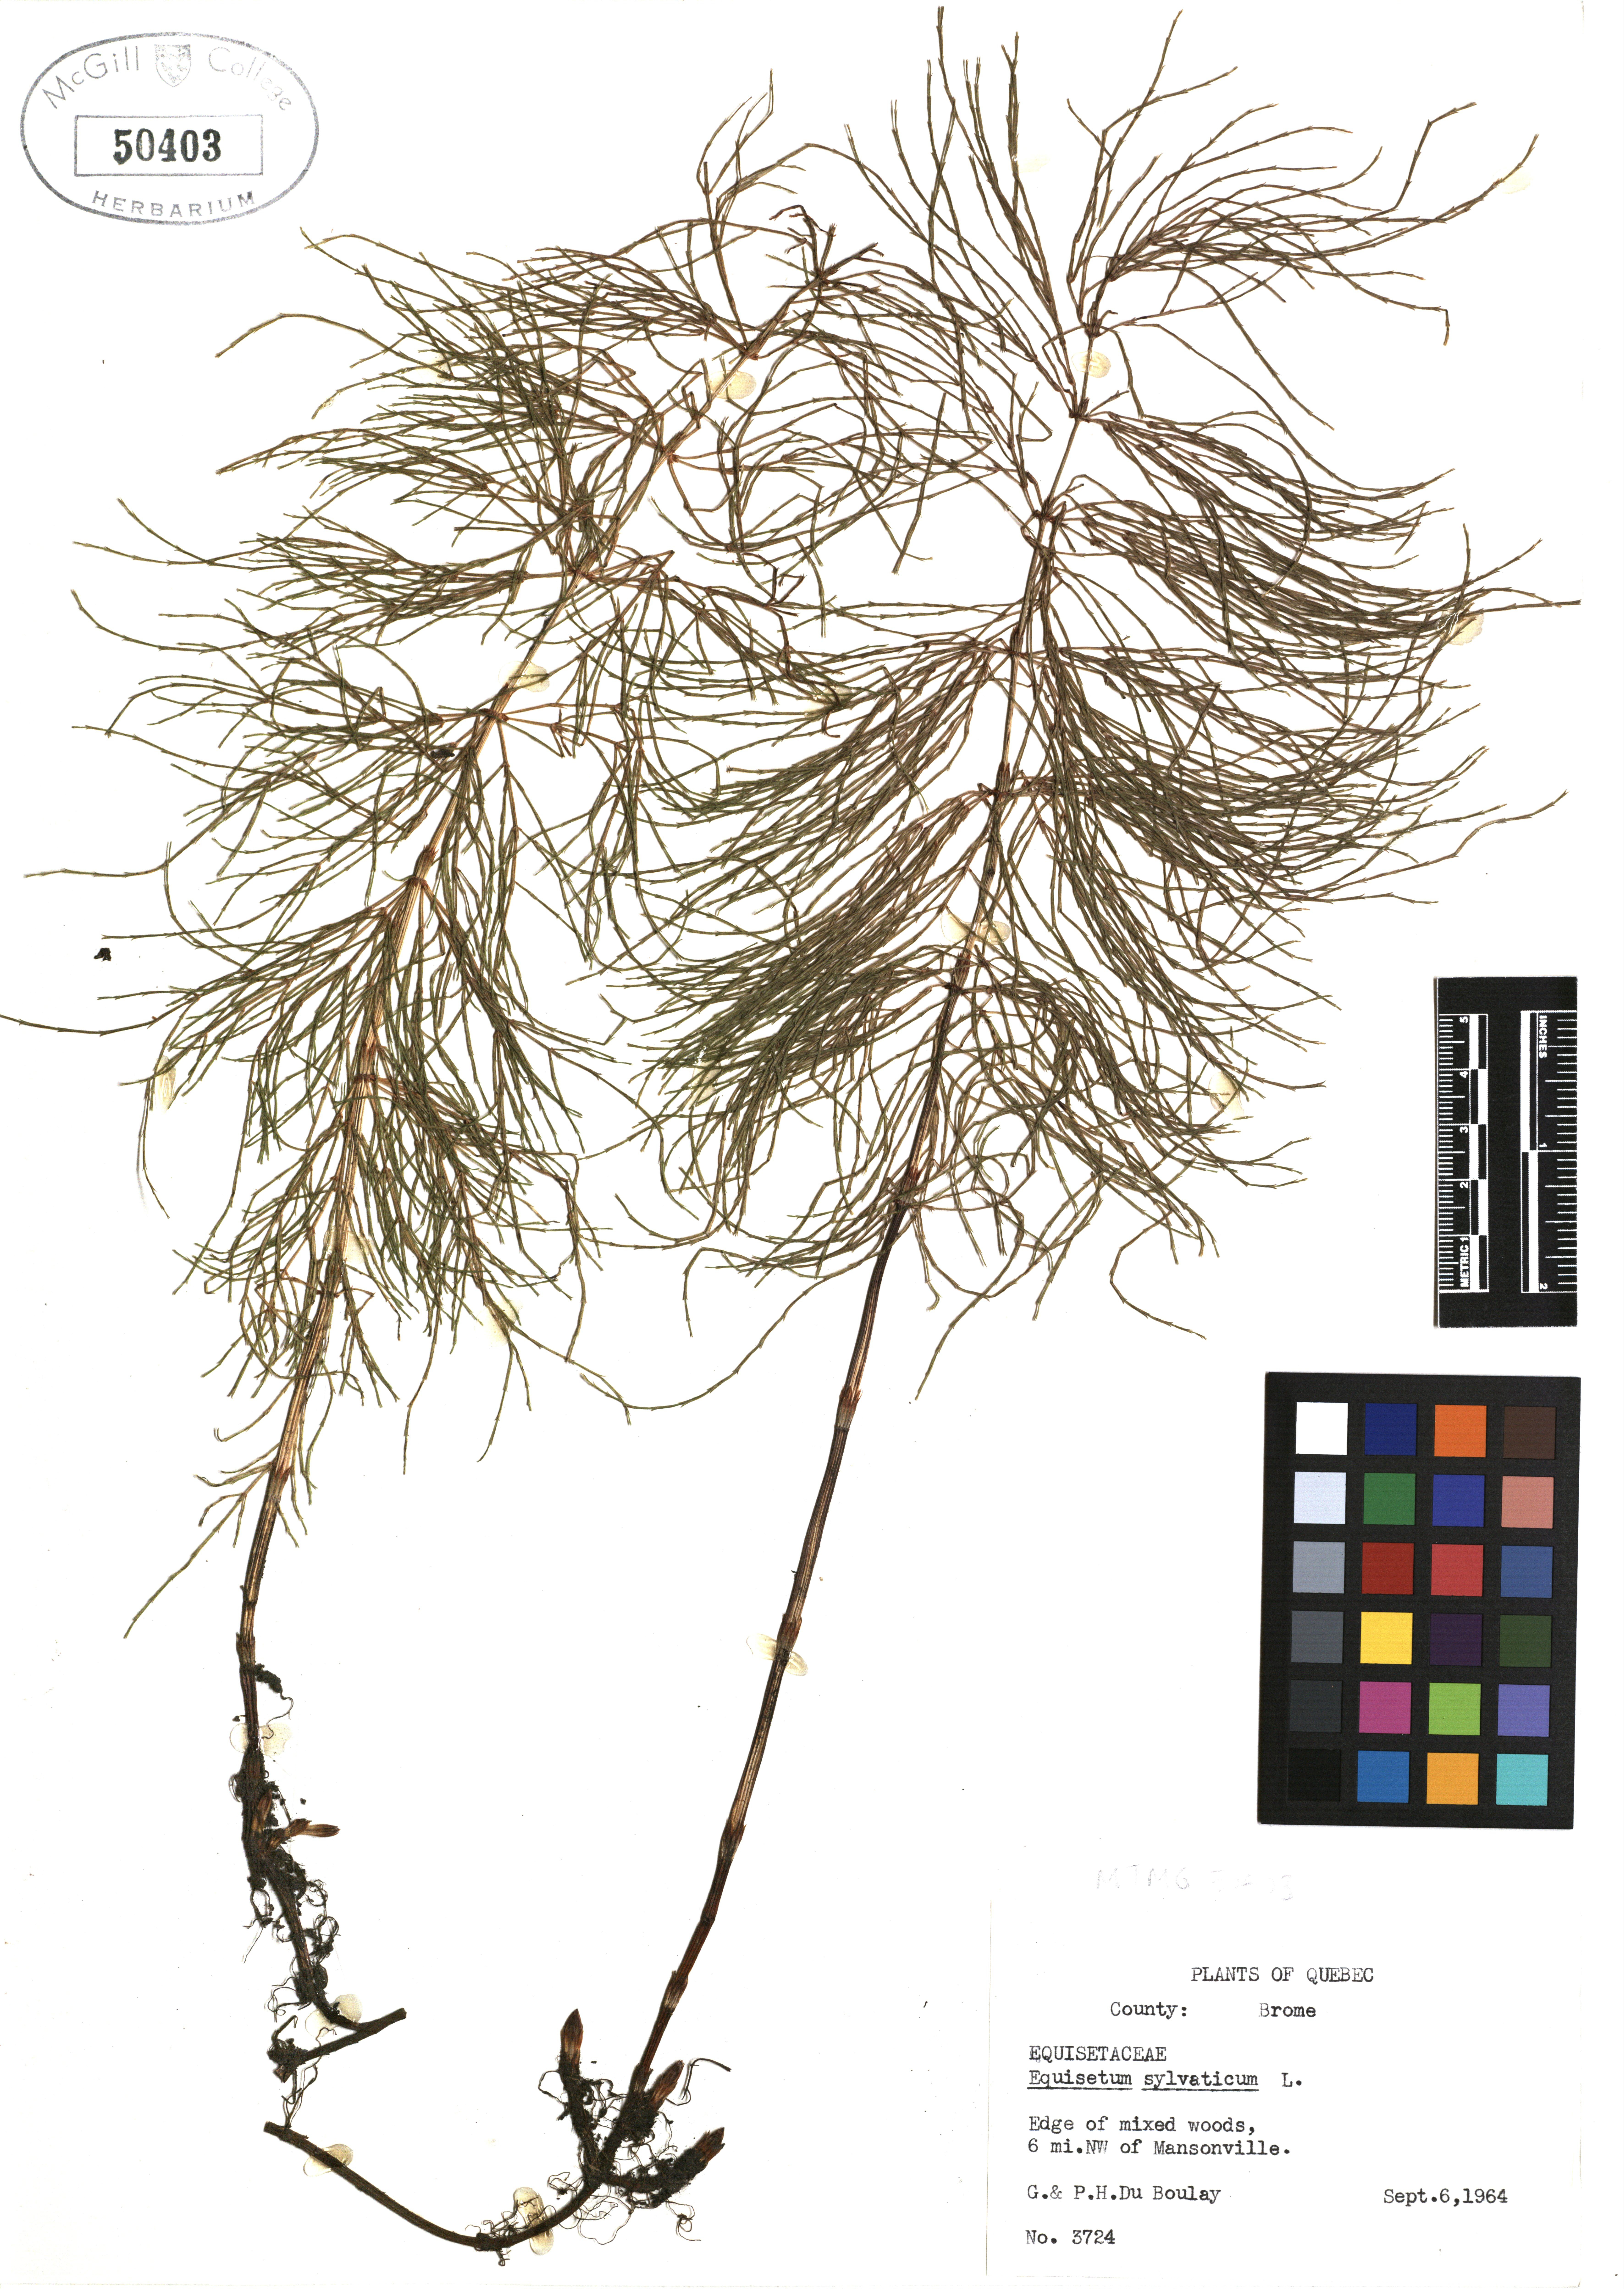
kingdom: Plantae
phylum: Tracheophyta
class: Polypodiopsida
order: Equisetales
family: Equisetaceae
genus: Equisetum
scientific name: Equisetum sylvaticum
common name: Wood horsetail
